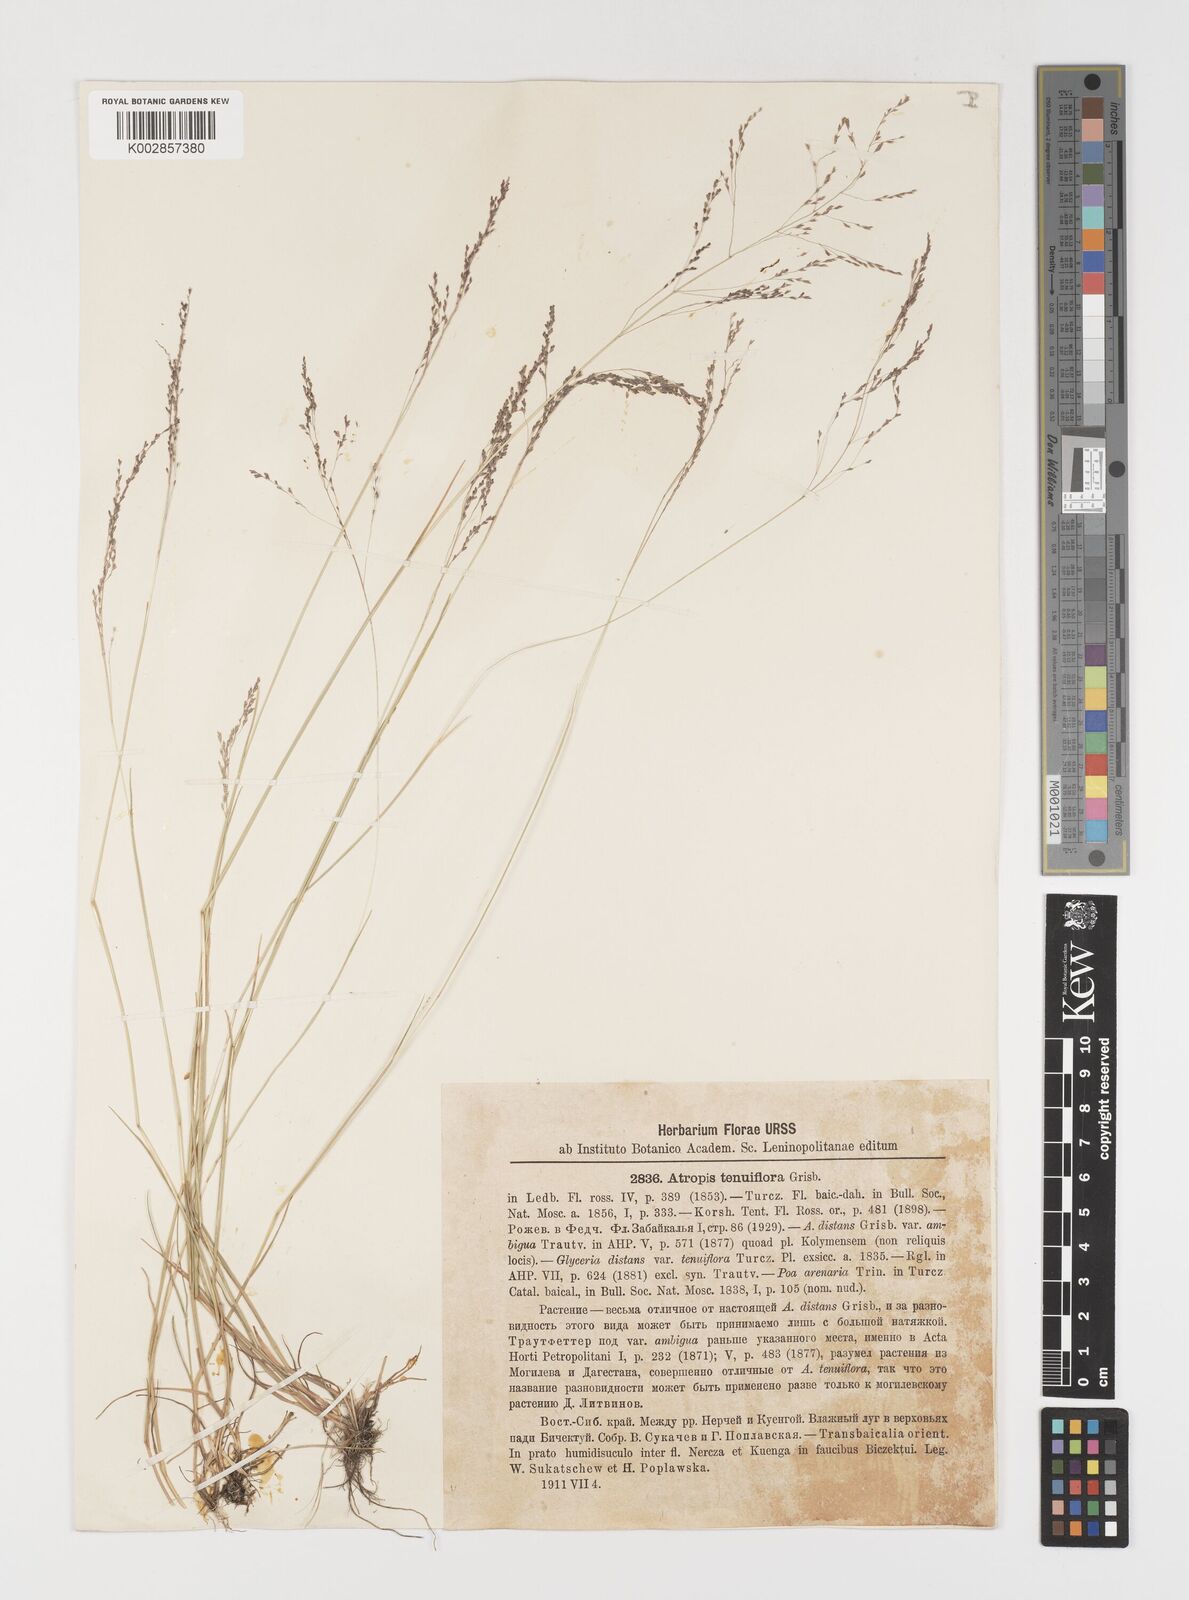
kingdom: Plantae
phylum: Tracheophyta
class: Liliopsida
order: Poales
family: Poaceae
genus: Puccinellia
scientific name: Puccinellia tenuiflora
